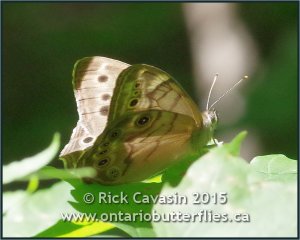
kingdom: Animalia
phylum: Arthropoda
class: Insecta
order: Lepidoptera
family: Nymphalidae
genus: Lethe
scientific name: Lethe anthedon
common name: Northern Pearly-Eye
